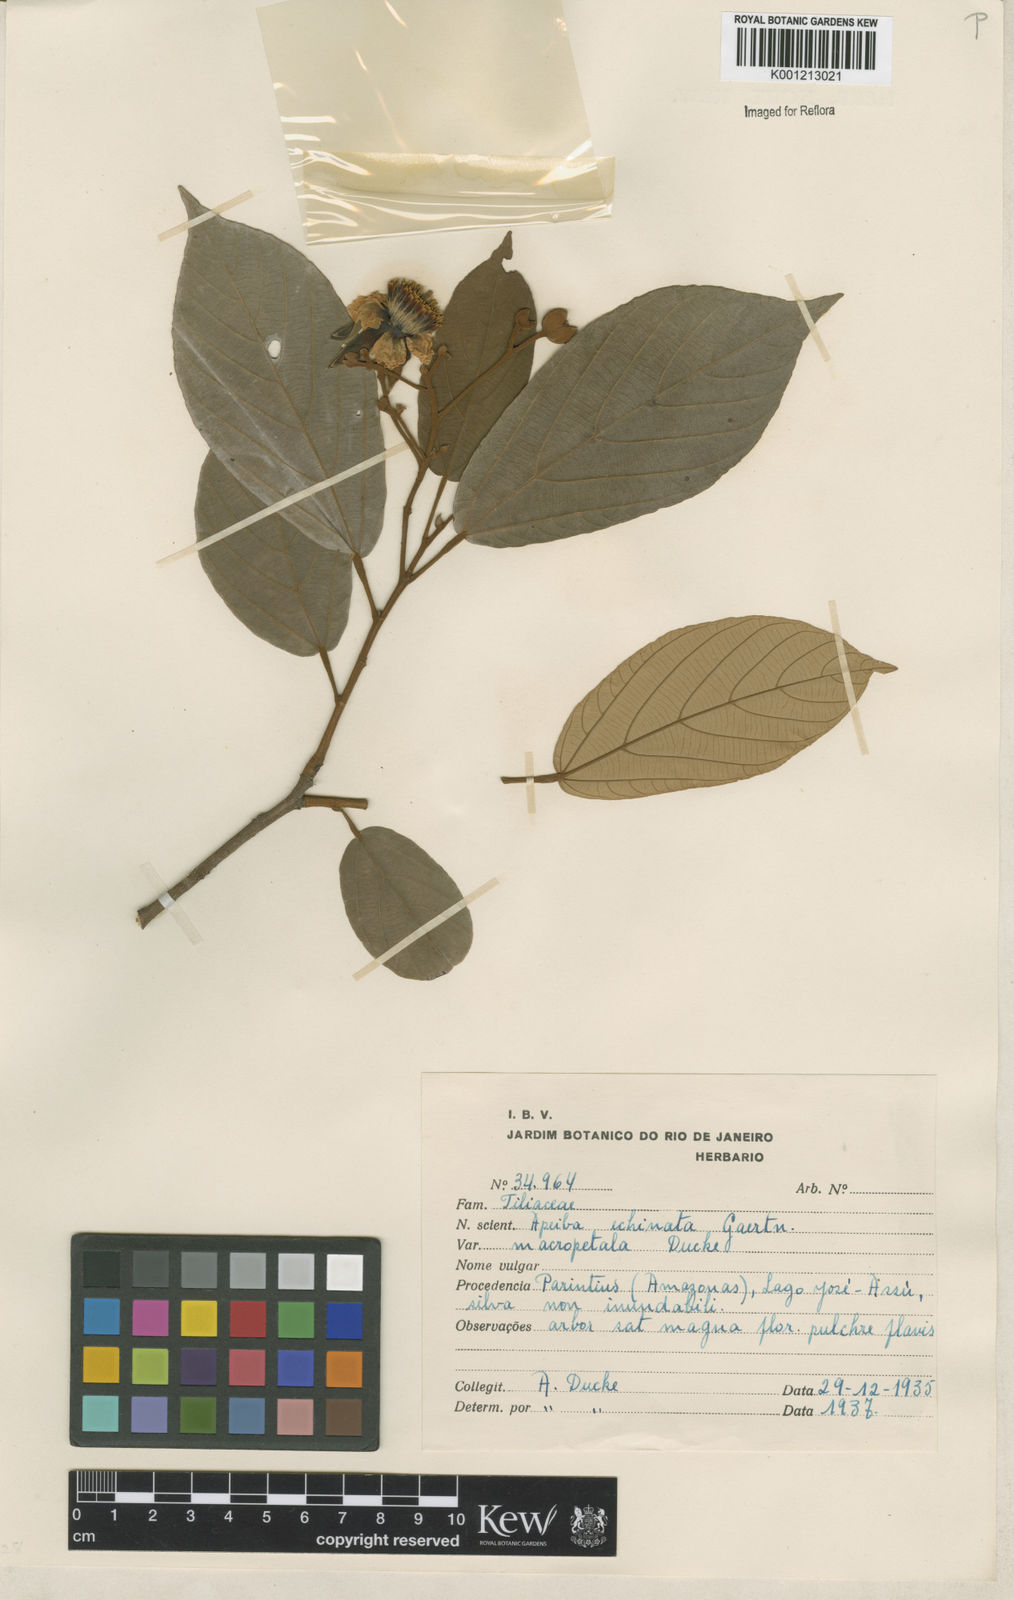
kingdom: Plantae
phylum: Tracheophyta
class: Magnoliopsida
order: Malvales
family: Malvaceae
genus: Apeiba
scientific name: Apeiba
